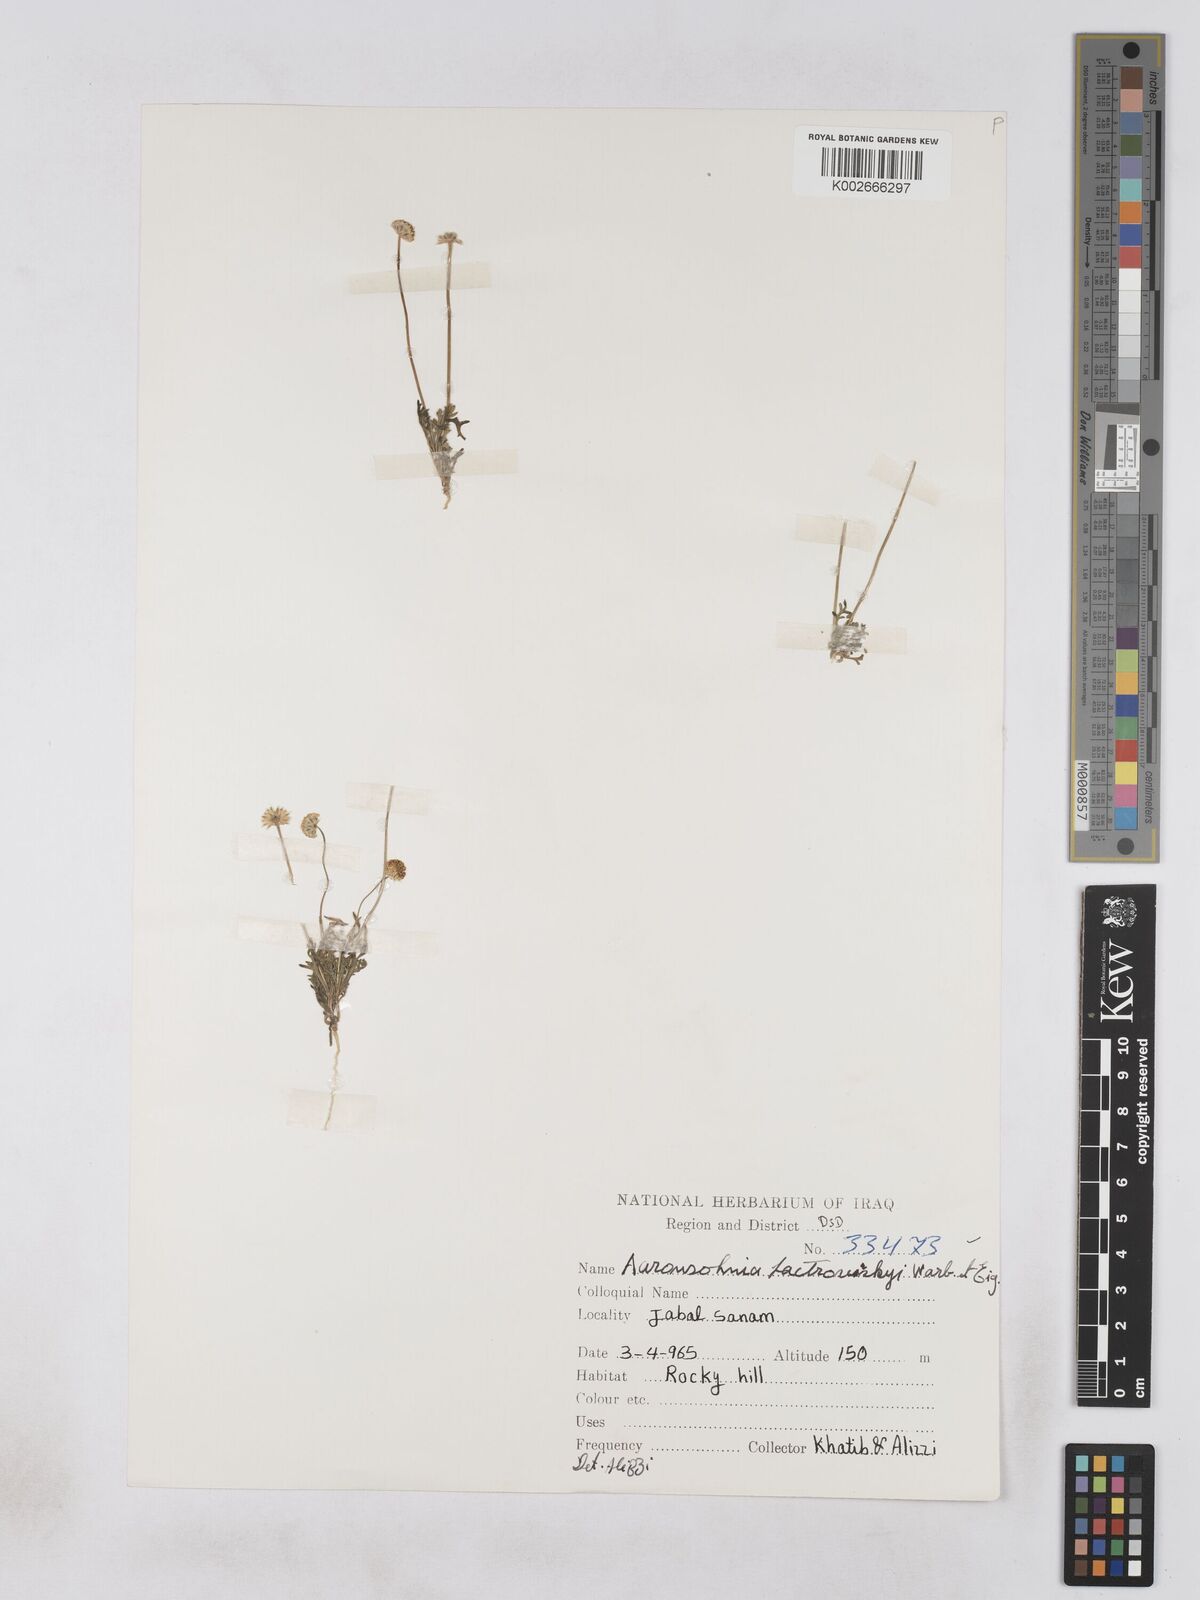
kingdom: Plantae
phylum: Tracheophyta
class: Magnoliopsida
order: Asterales
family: Asteraceae
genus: Otoglyphis
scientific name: Otoglyphis factorovskyi
